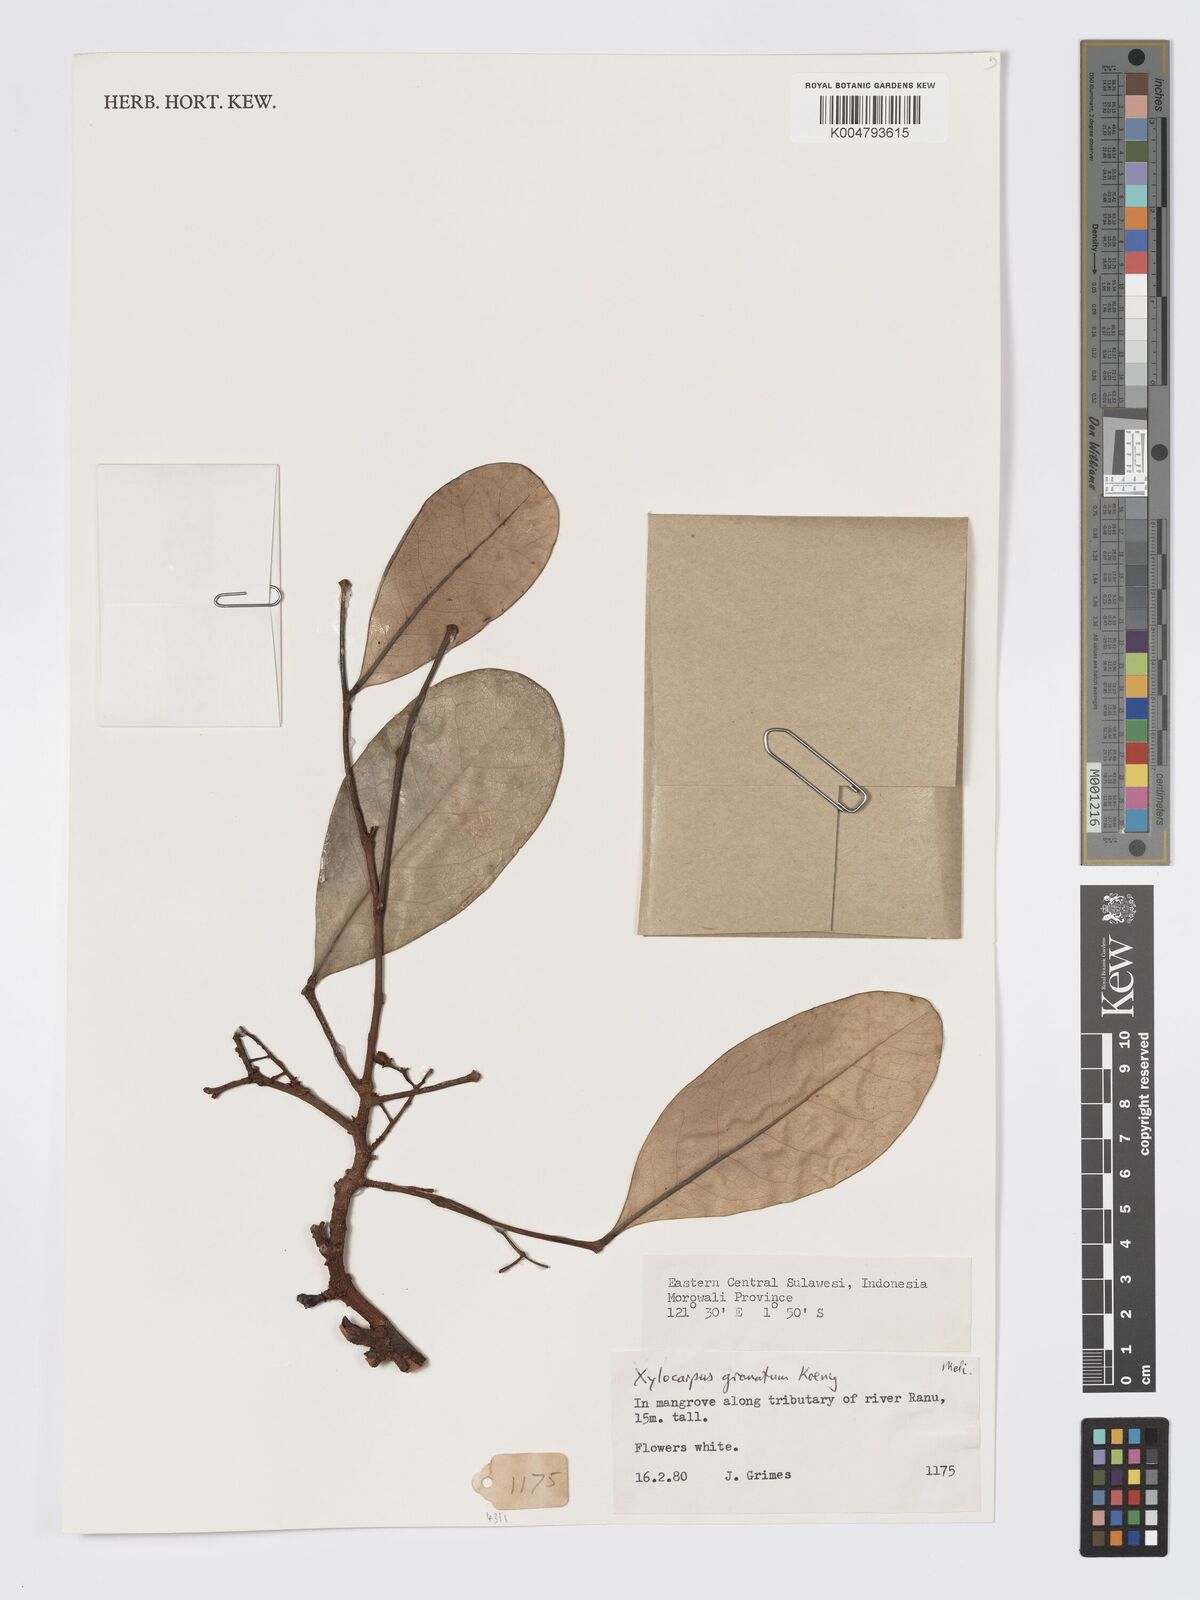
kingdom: Plantae
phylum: Tracheophyta
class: Magnoliopsida
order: Sapindales
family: Meliaceae
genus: Xylocarpus
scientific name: Xylocarpus granatum
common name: Apple mangrove
